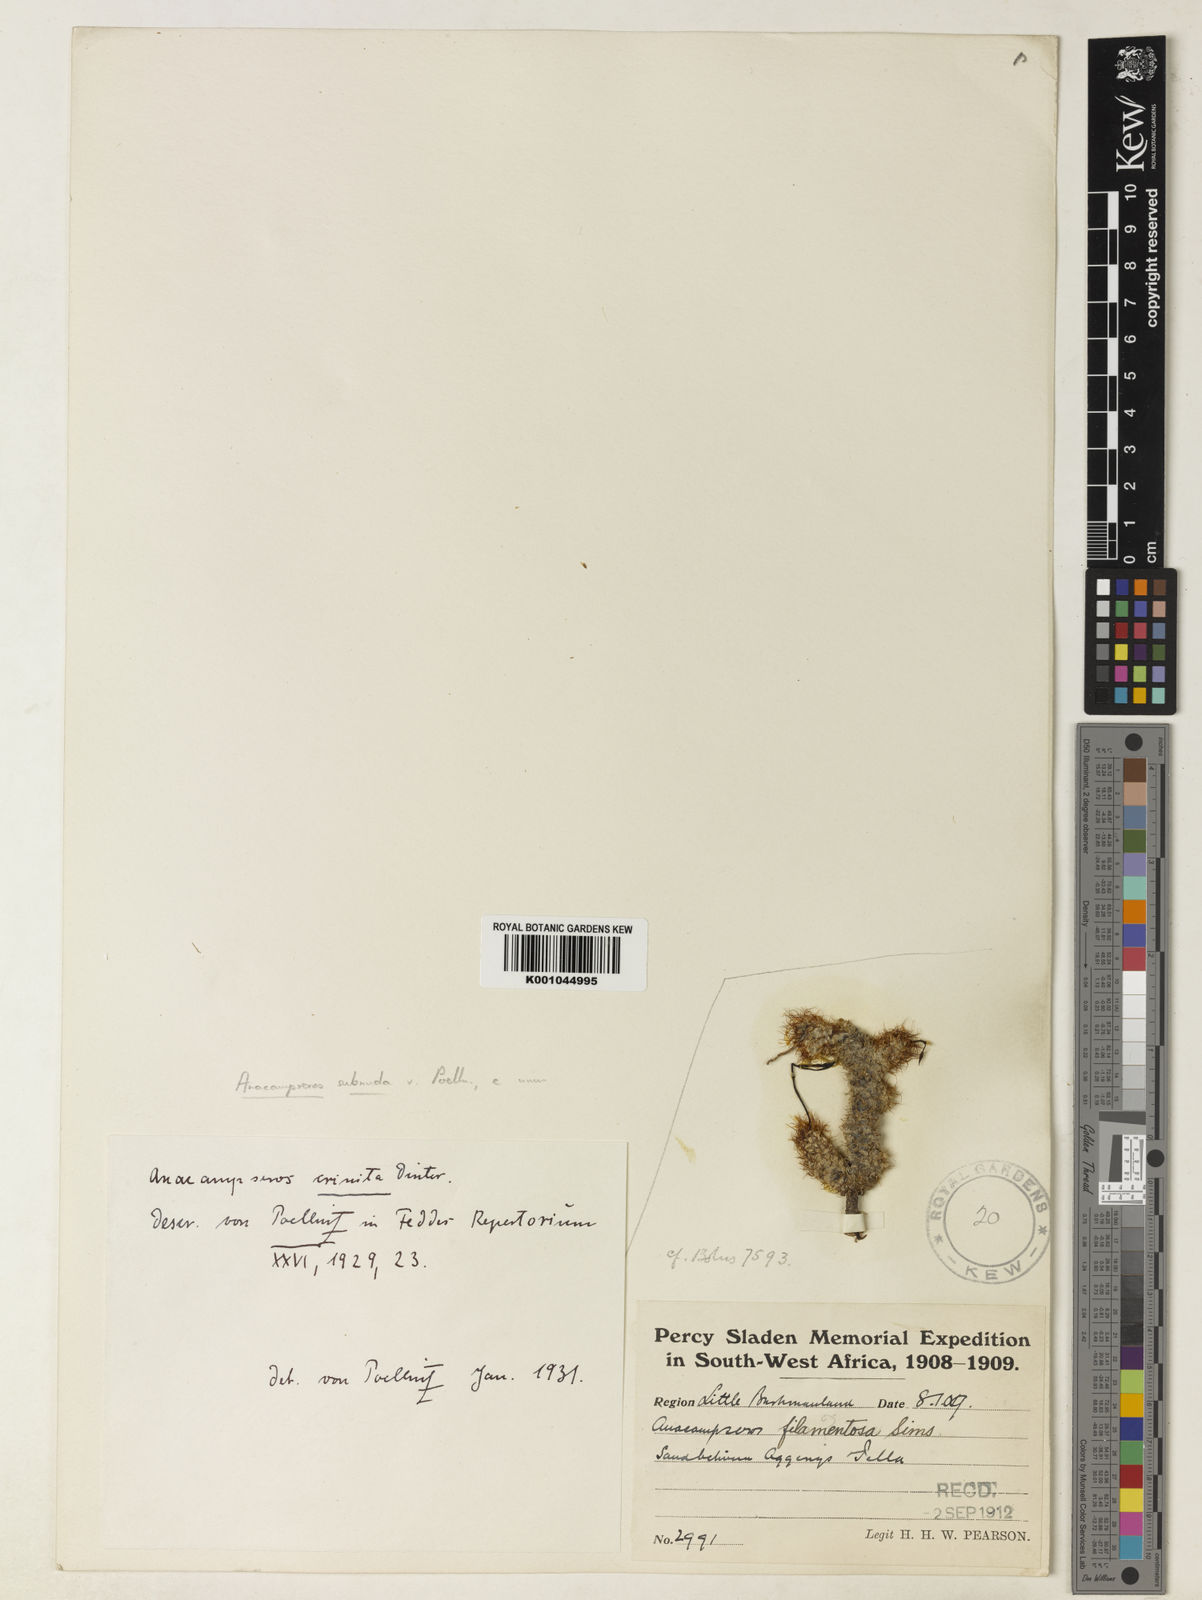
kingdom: Plantae
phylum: Tracheophyta
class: Magnoliopsida
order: Caryophyllales
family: Anacampserotaceae
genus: Anacampseros
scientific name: Anacampseros
